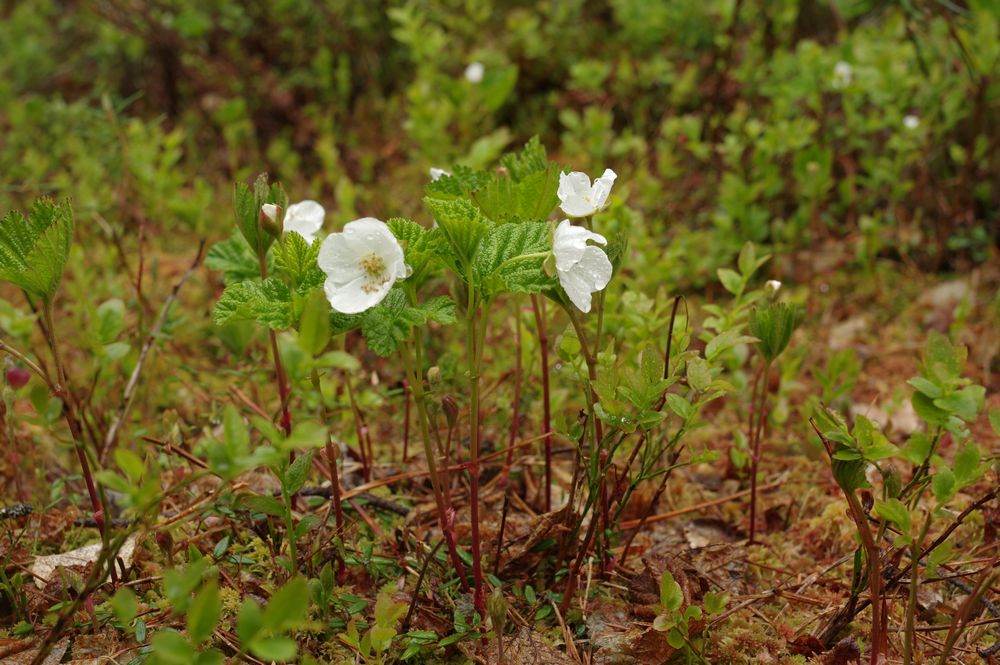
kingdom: Plantae
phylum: Tracheophyta
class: Magnoliopsida
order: Rosales
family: Rosaceae
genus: Rubus
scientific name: Rubus chamaemorus
